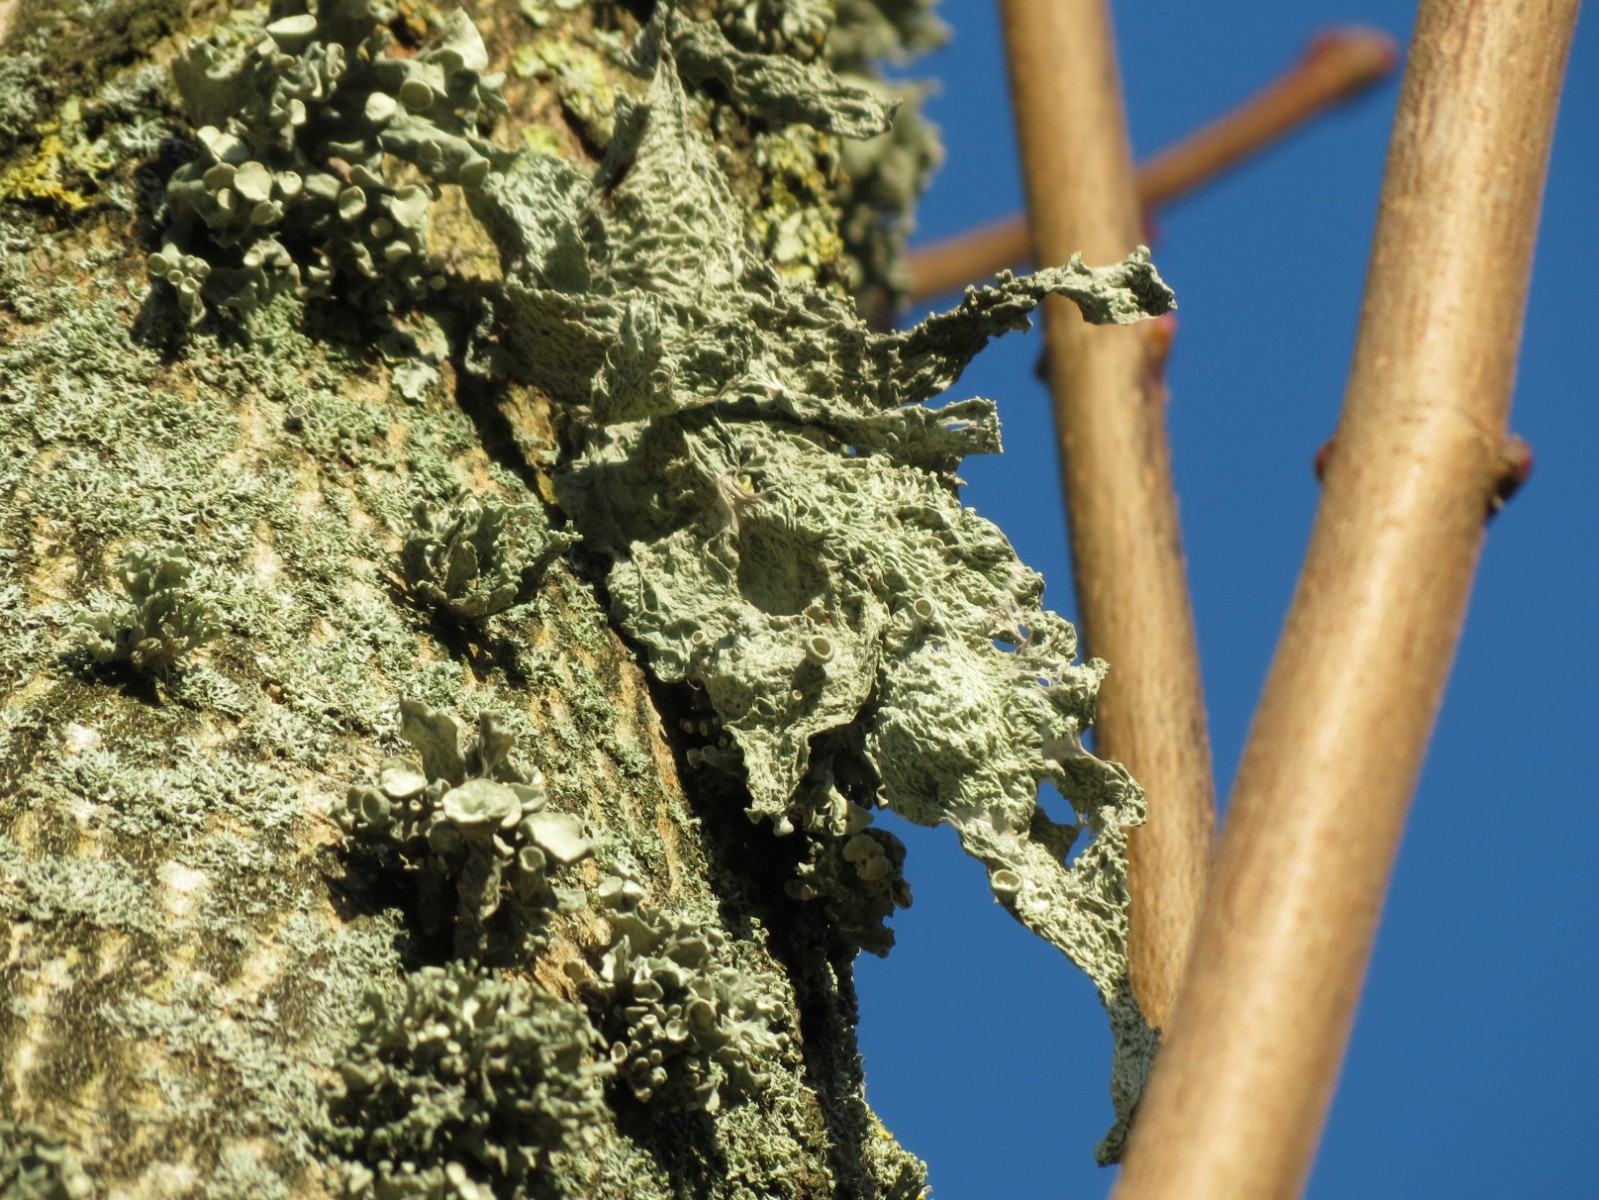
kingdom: Fungi
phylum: Ascomycota
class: Lecanoromycetes
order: Lecanorales
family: Ramalinaceae
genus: Ramalina
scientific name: Ramalina fraxinea
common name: stor grenlav
